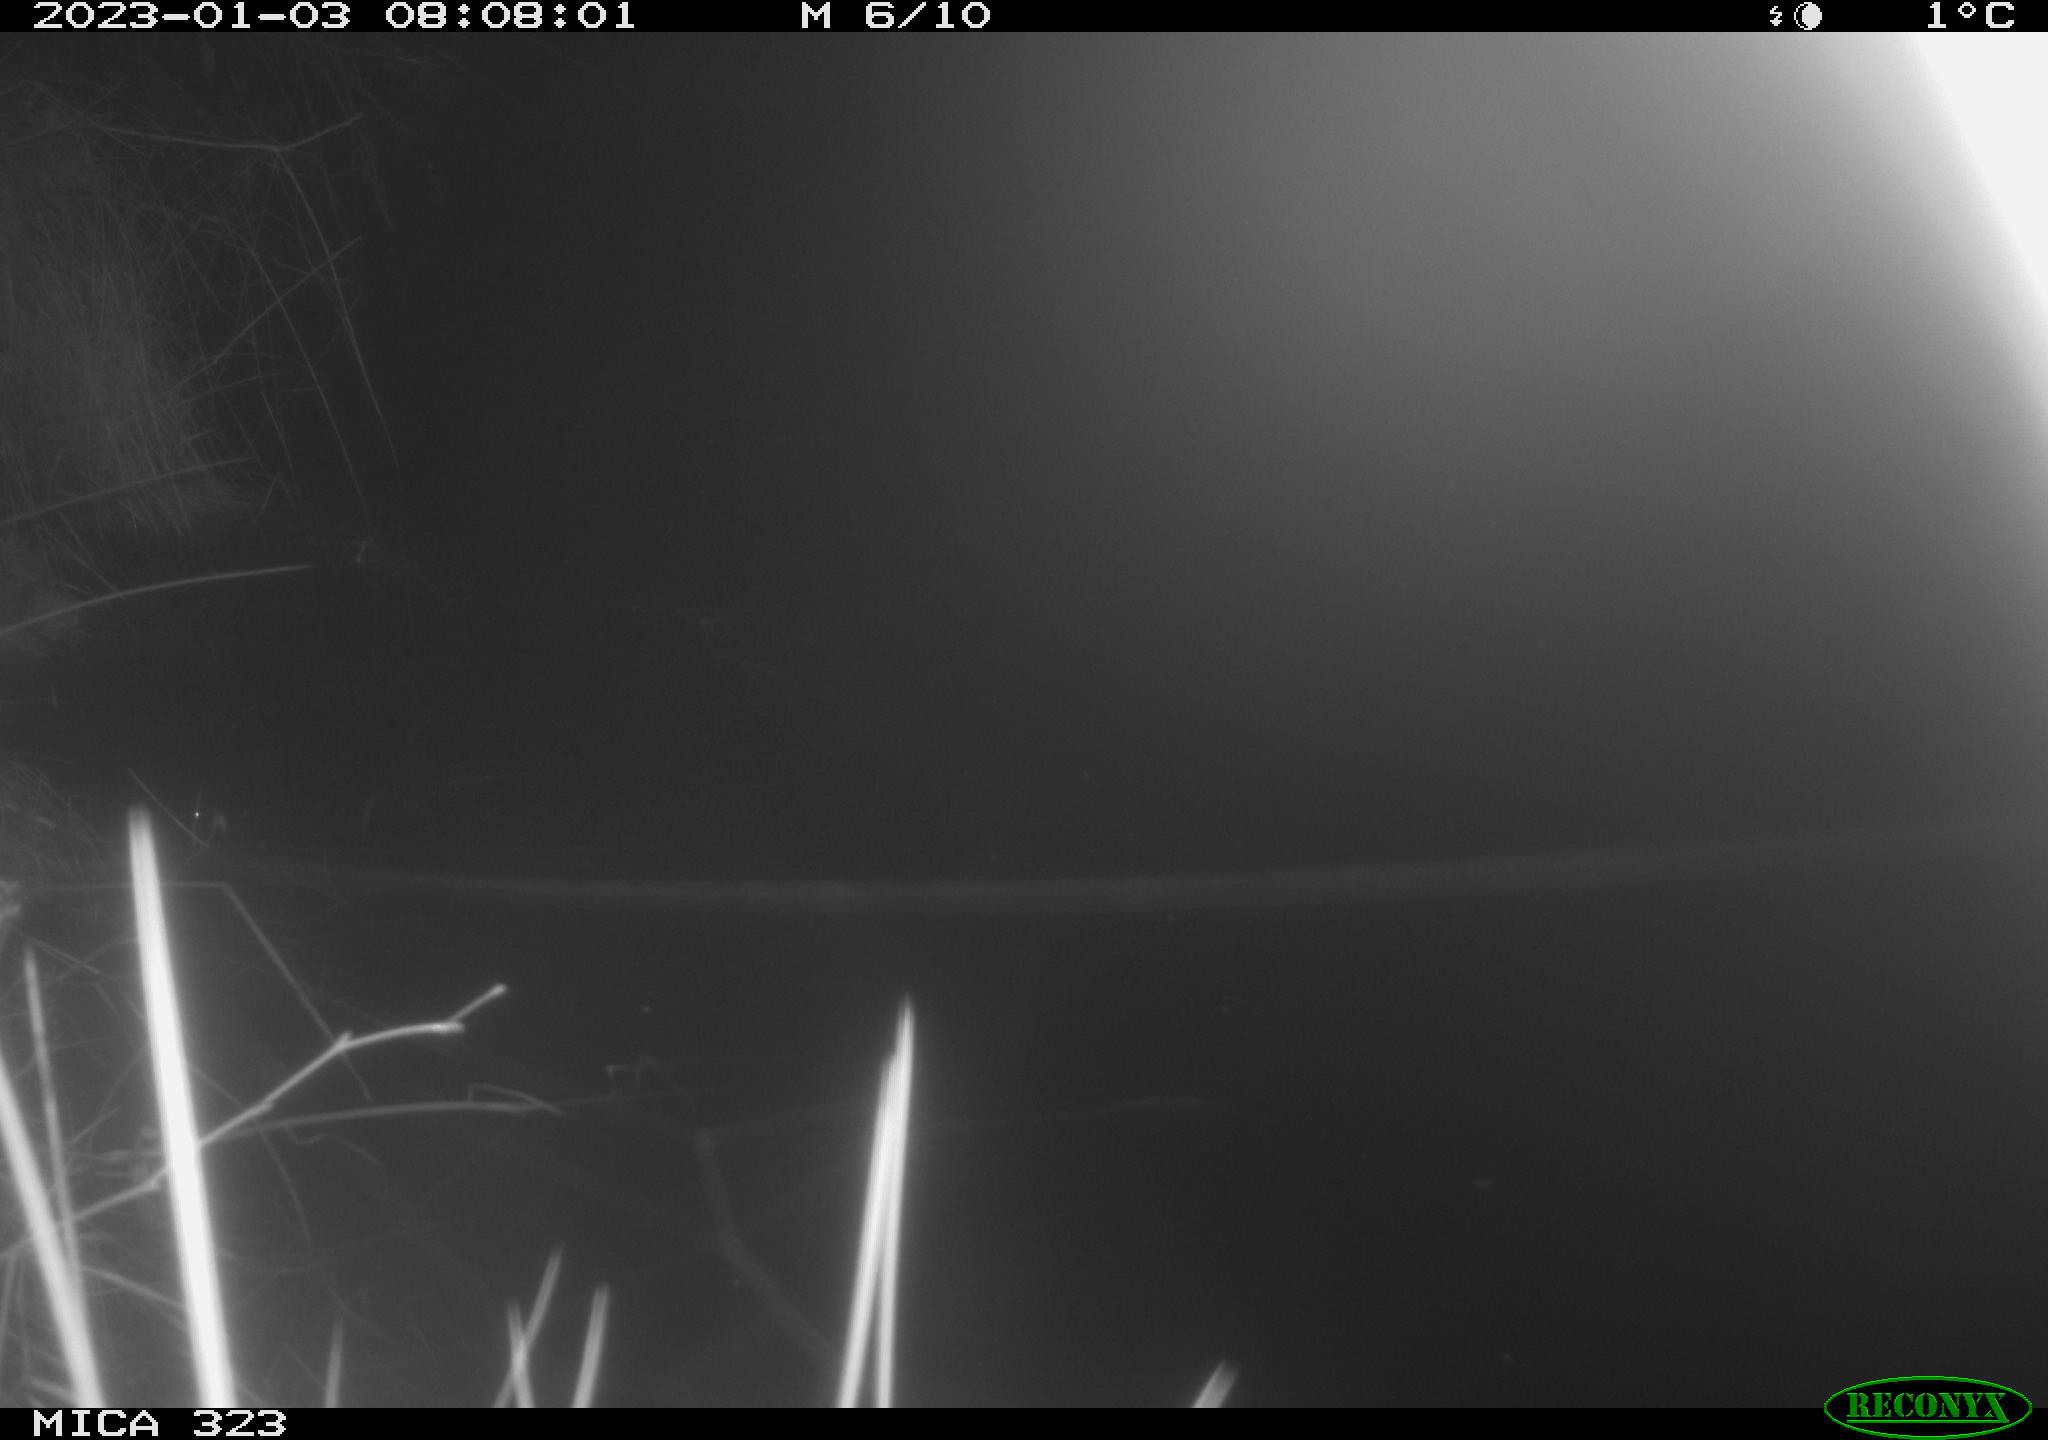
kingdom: Animalia
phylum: Chordata
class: Mammalia
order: Rodentia
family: Cricetidae
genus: Ondatra
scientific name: Ondatra zibethicus
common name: Muskrat
